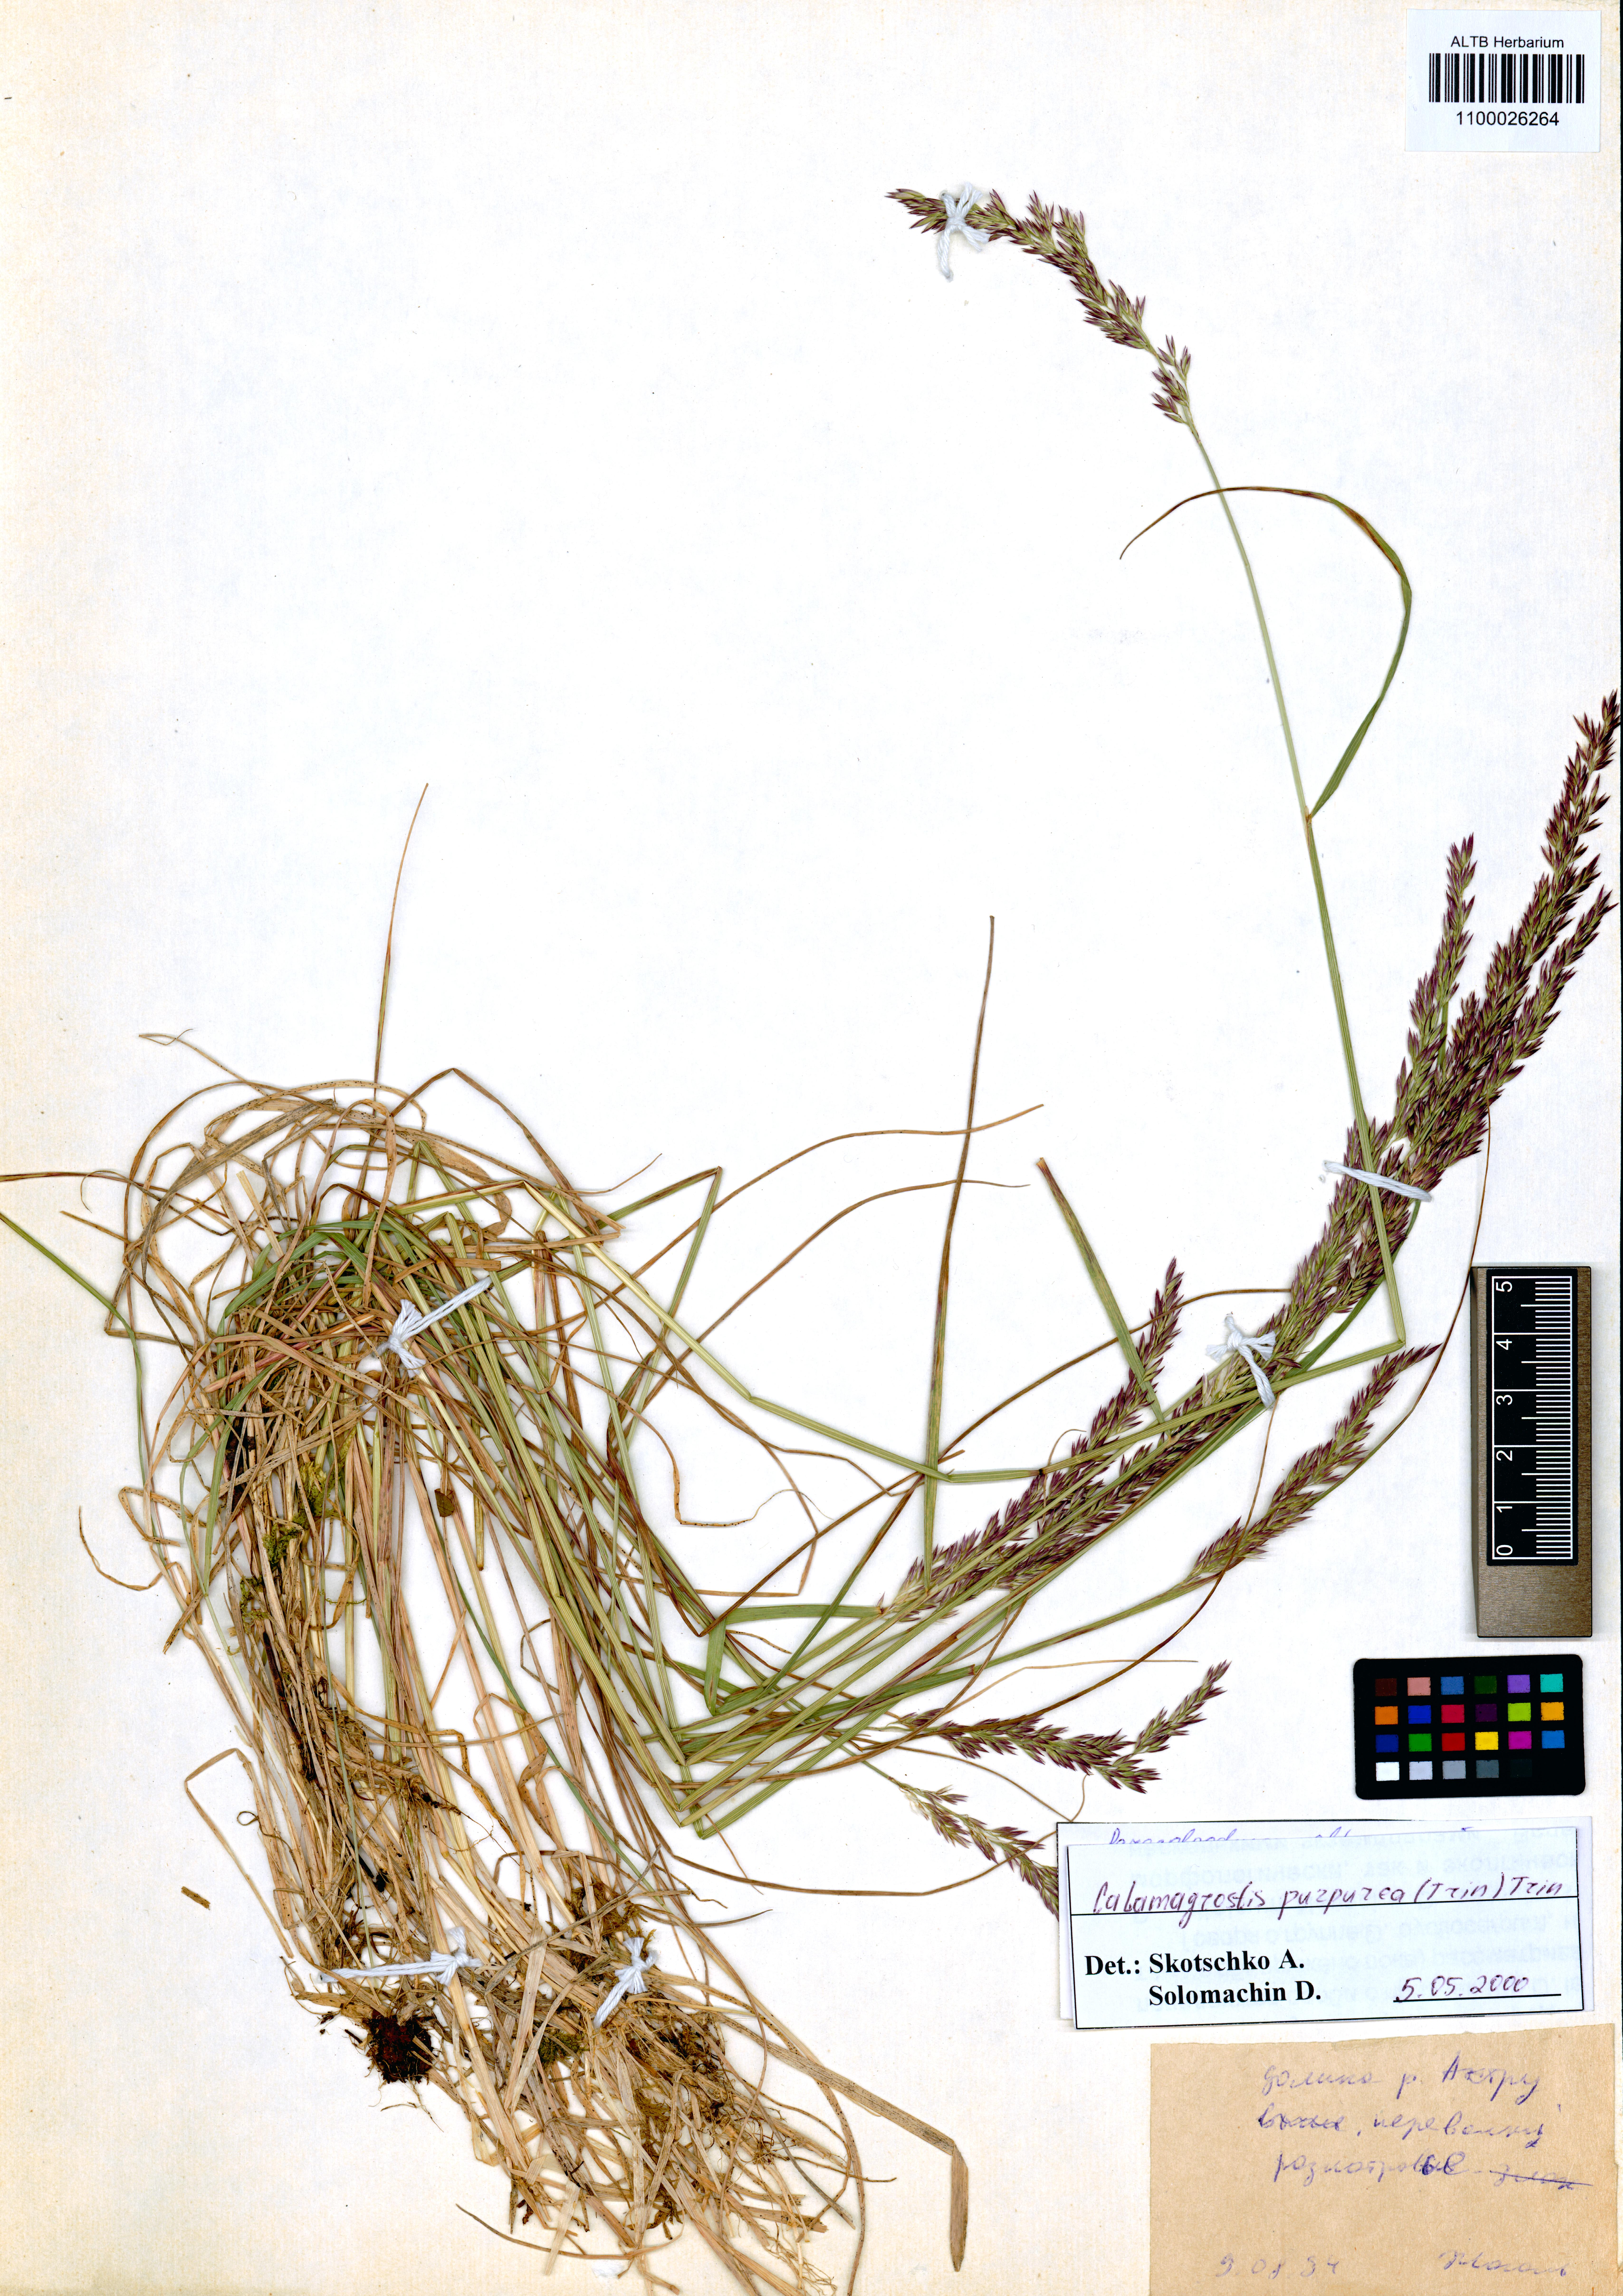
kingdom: Plantae
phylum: Tracheophyta
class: Liliopsida
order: Poales
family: Poaceae
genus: Calamagrostis
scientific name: Calamagrostis purpurea
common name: Scandinavian small-reed
